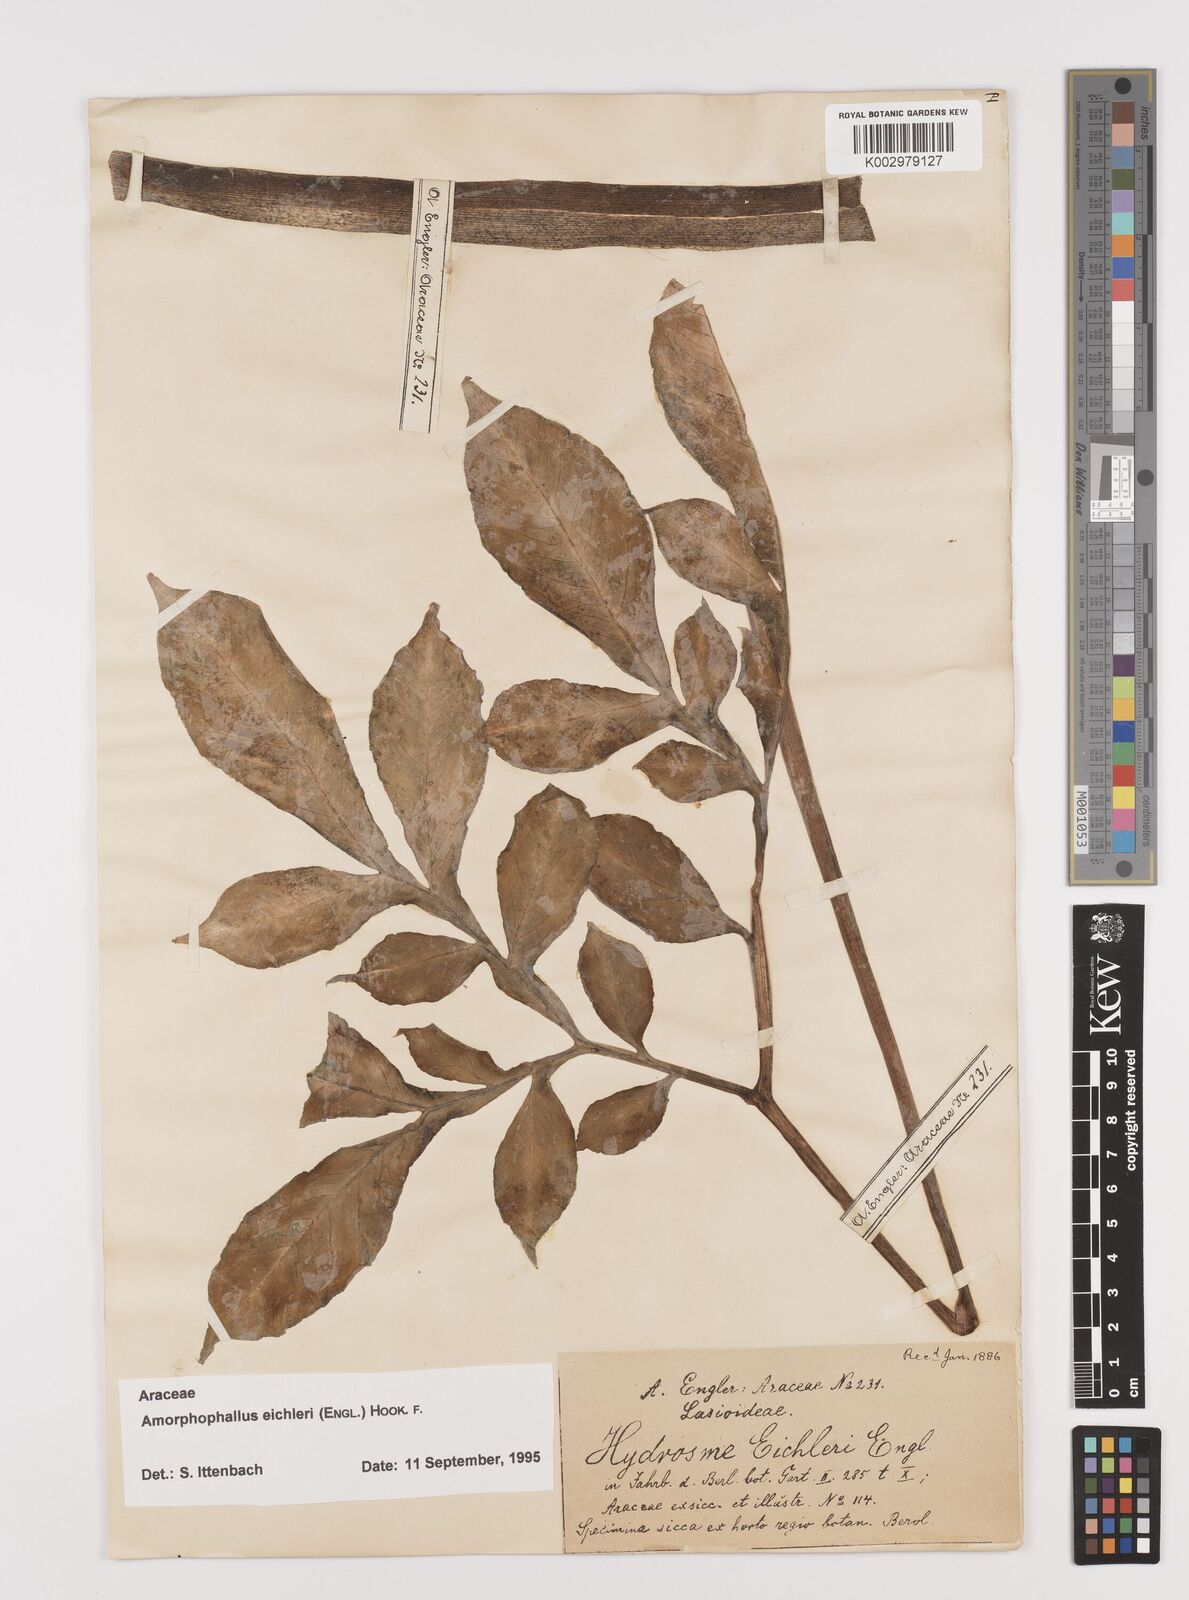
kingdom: Plantae
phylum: Tracheophyta
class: Liliopsida
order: Alismatales
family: Araceae
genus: Amorphophallus
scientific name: Amorphophallus eichleri
